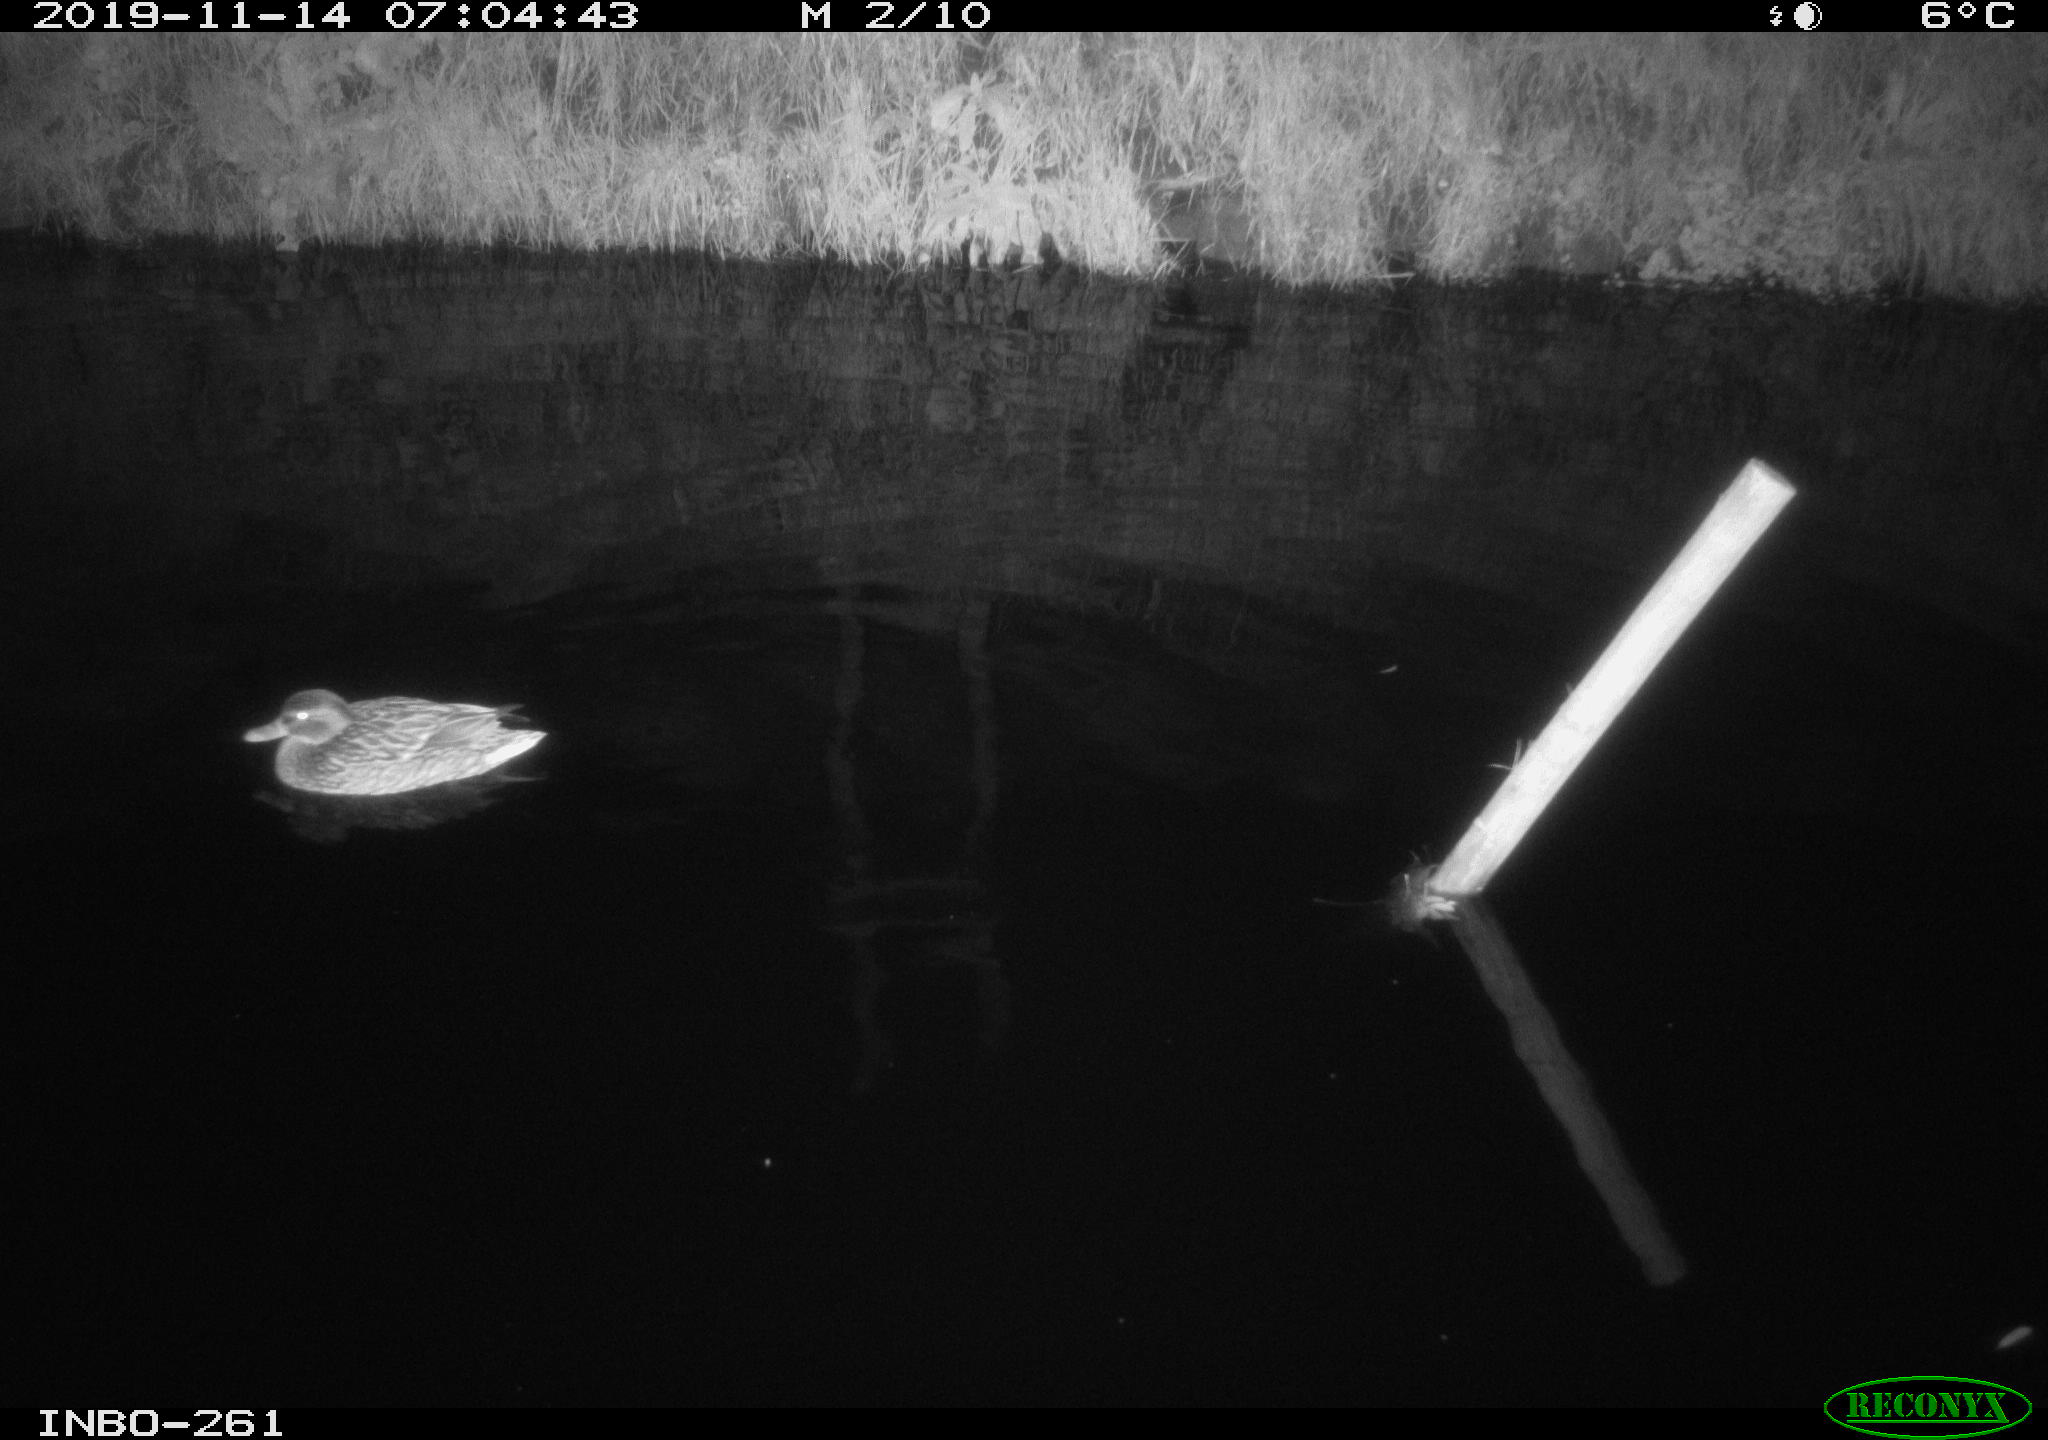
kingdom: Animalia
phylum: Chordata
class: Aves
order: Anseriformes
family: Anatidae
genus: Anas
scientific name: Anas platyrhynchos
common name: Mallard
